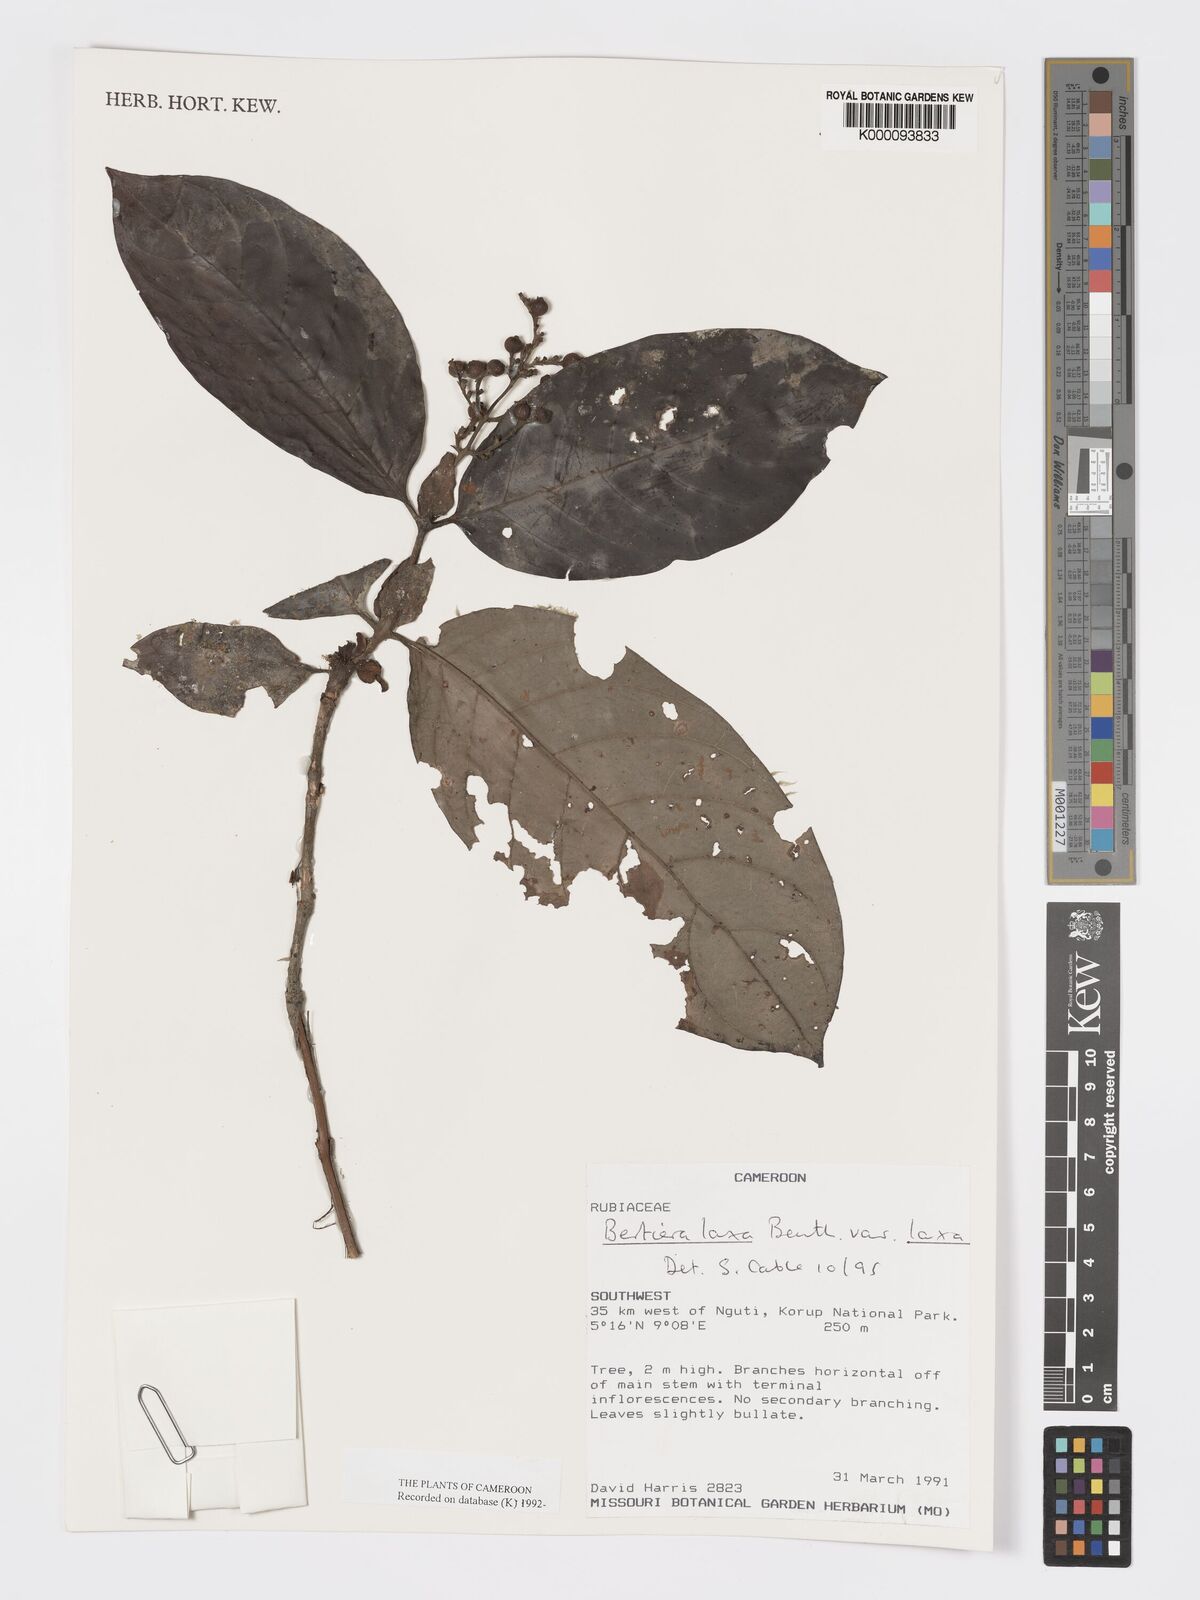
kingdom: Plantae
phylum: Tracheophyta
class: Magnoliopsida
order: Gentianales
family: Rubiaceae
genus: Bertiera
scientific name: Bertiera laxa
